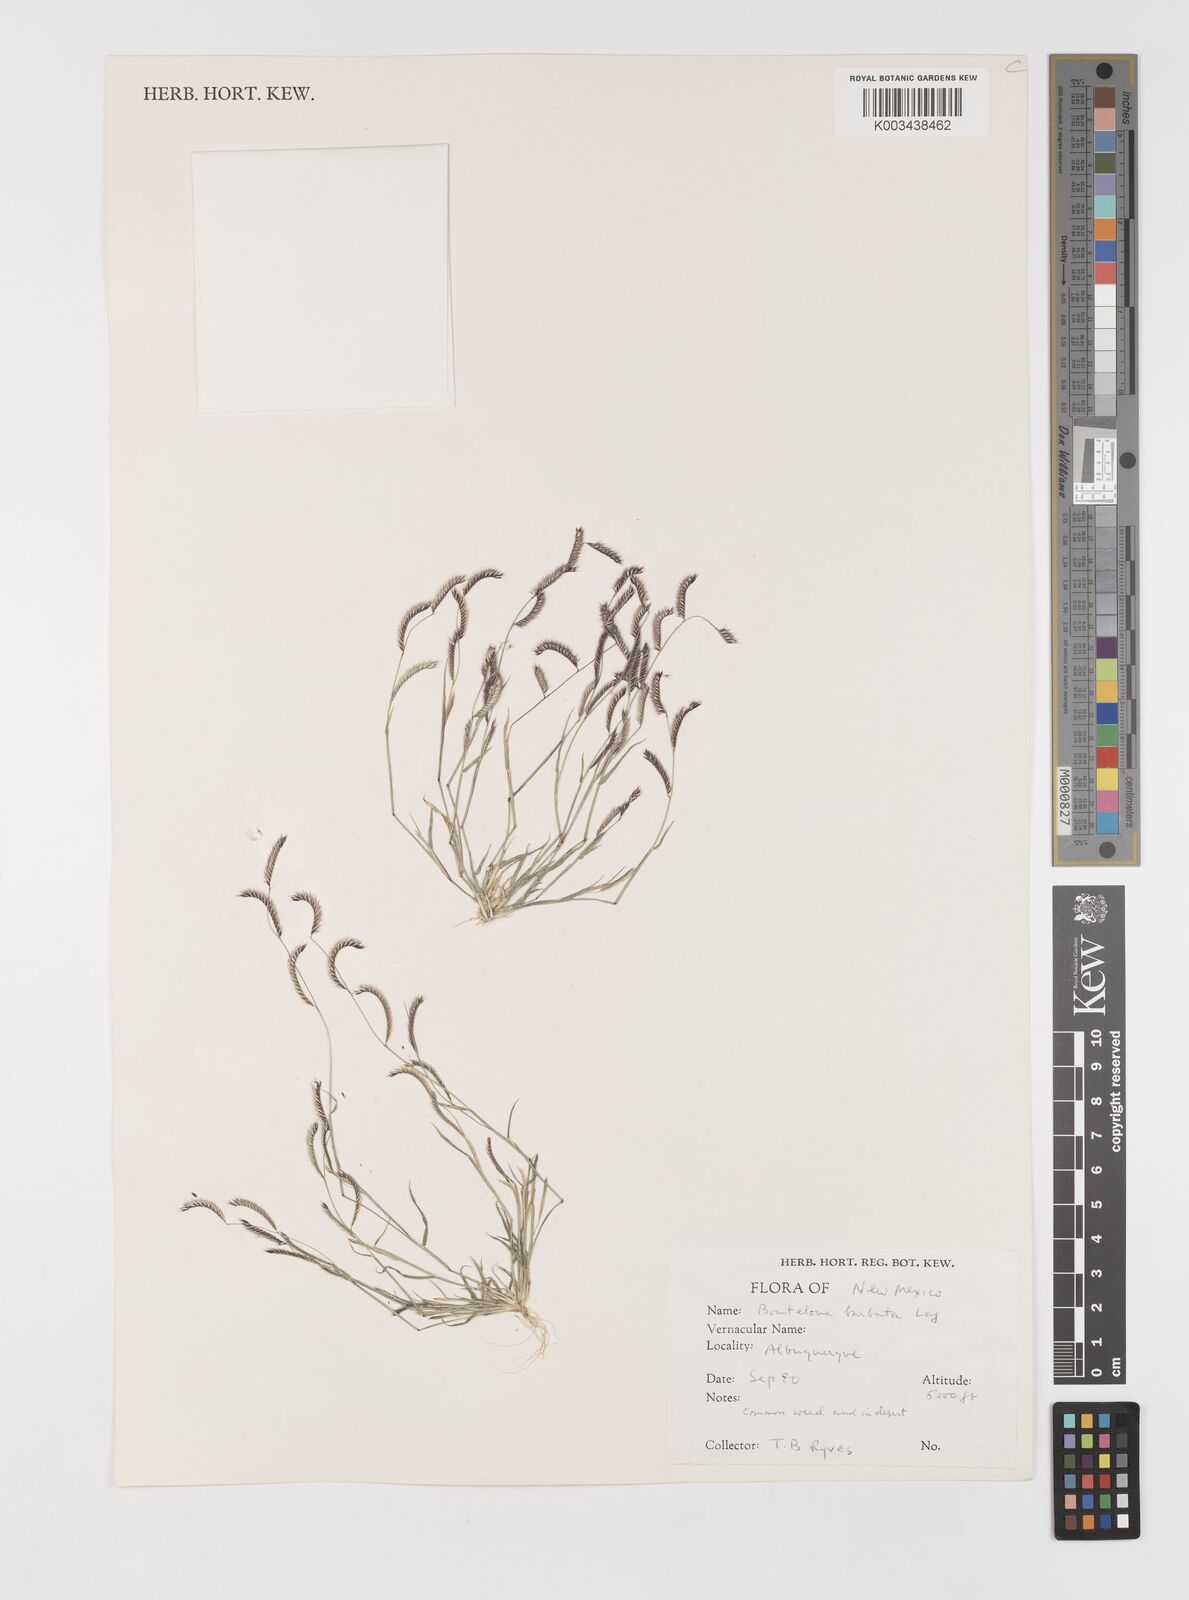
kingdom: Plantae
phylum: Tracheophyta
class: Liliopsida
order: Poales
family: Poaceae
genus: Bouteloua
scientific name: Bouteloua
